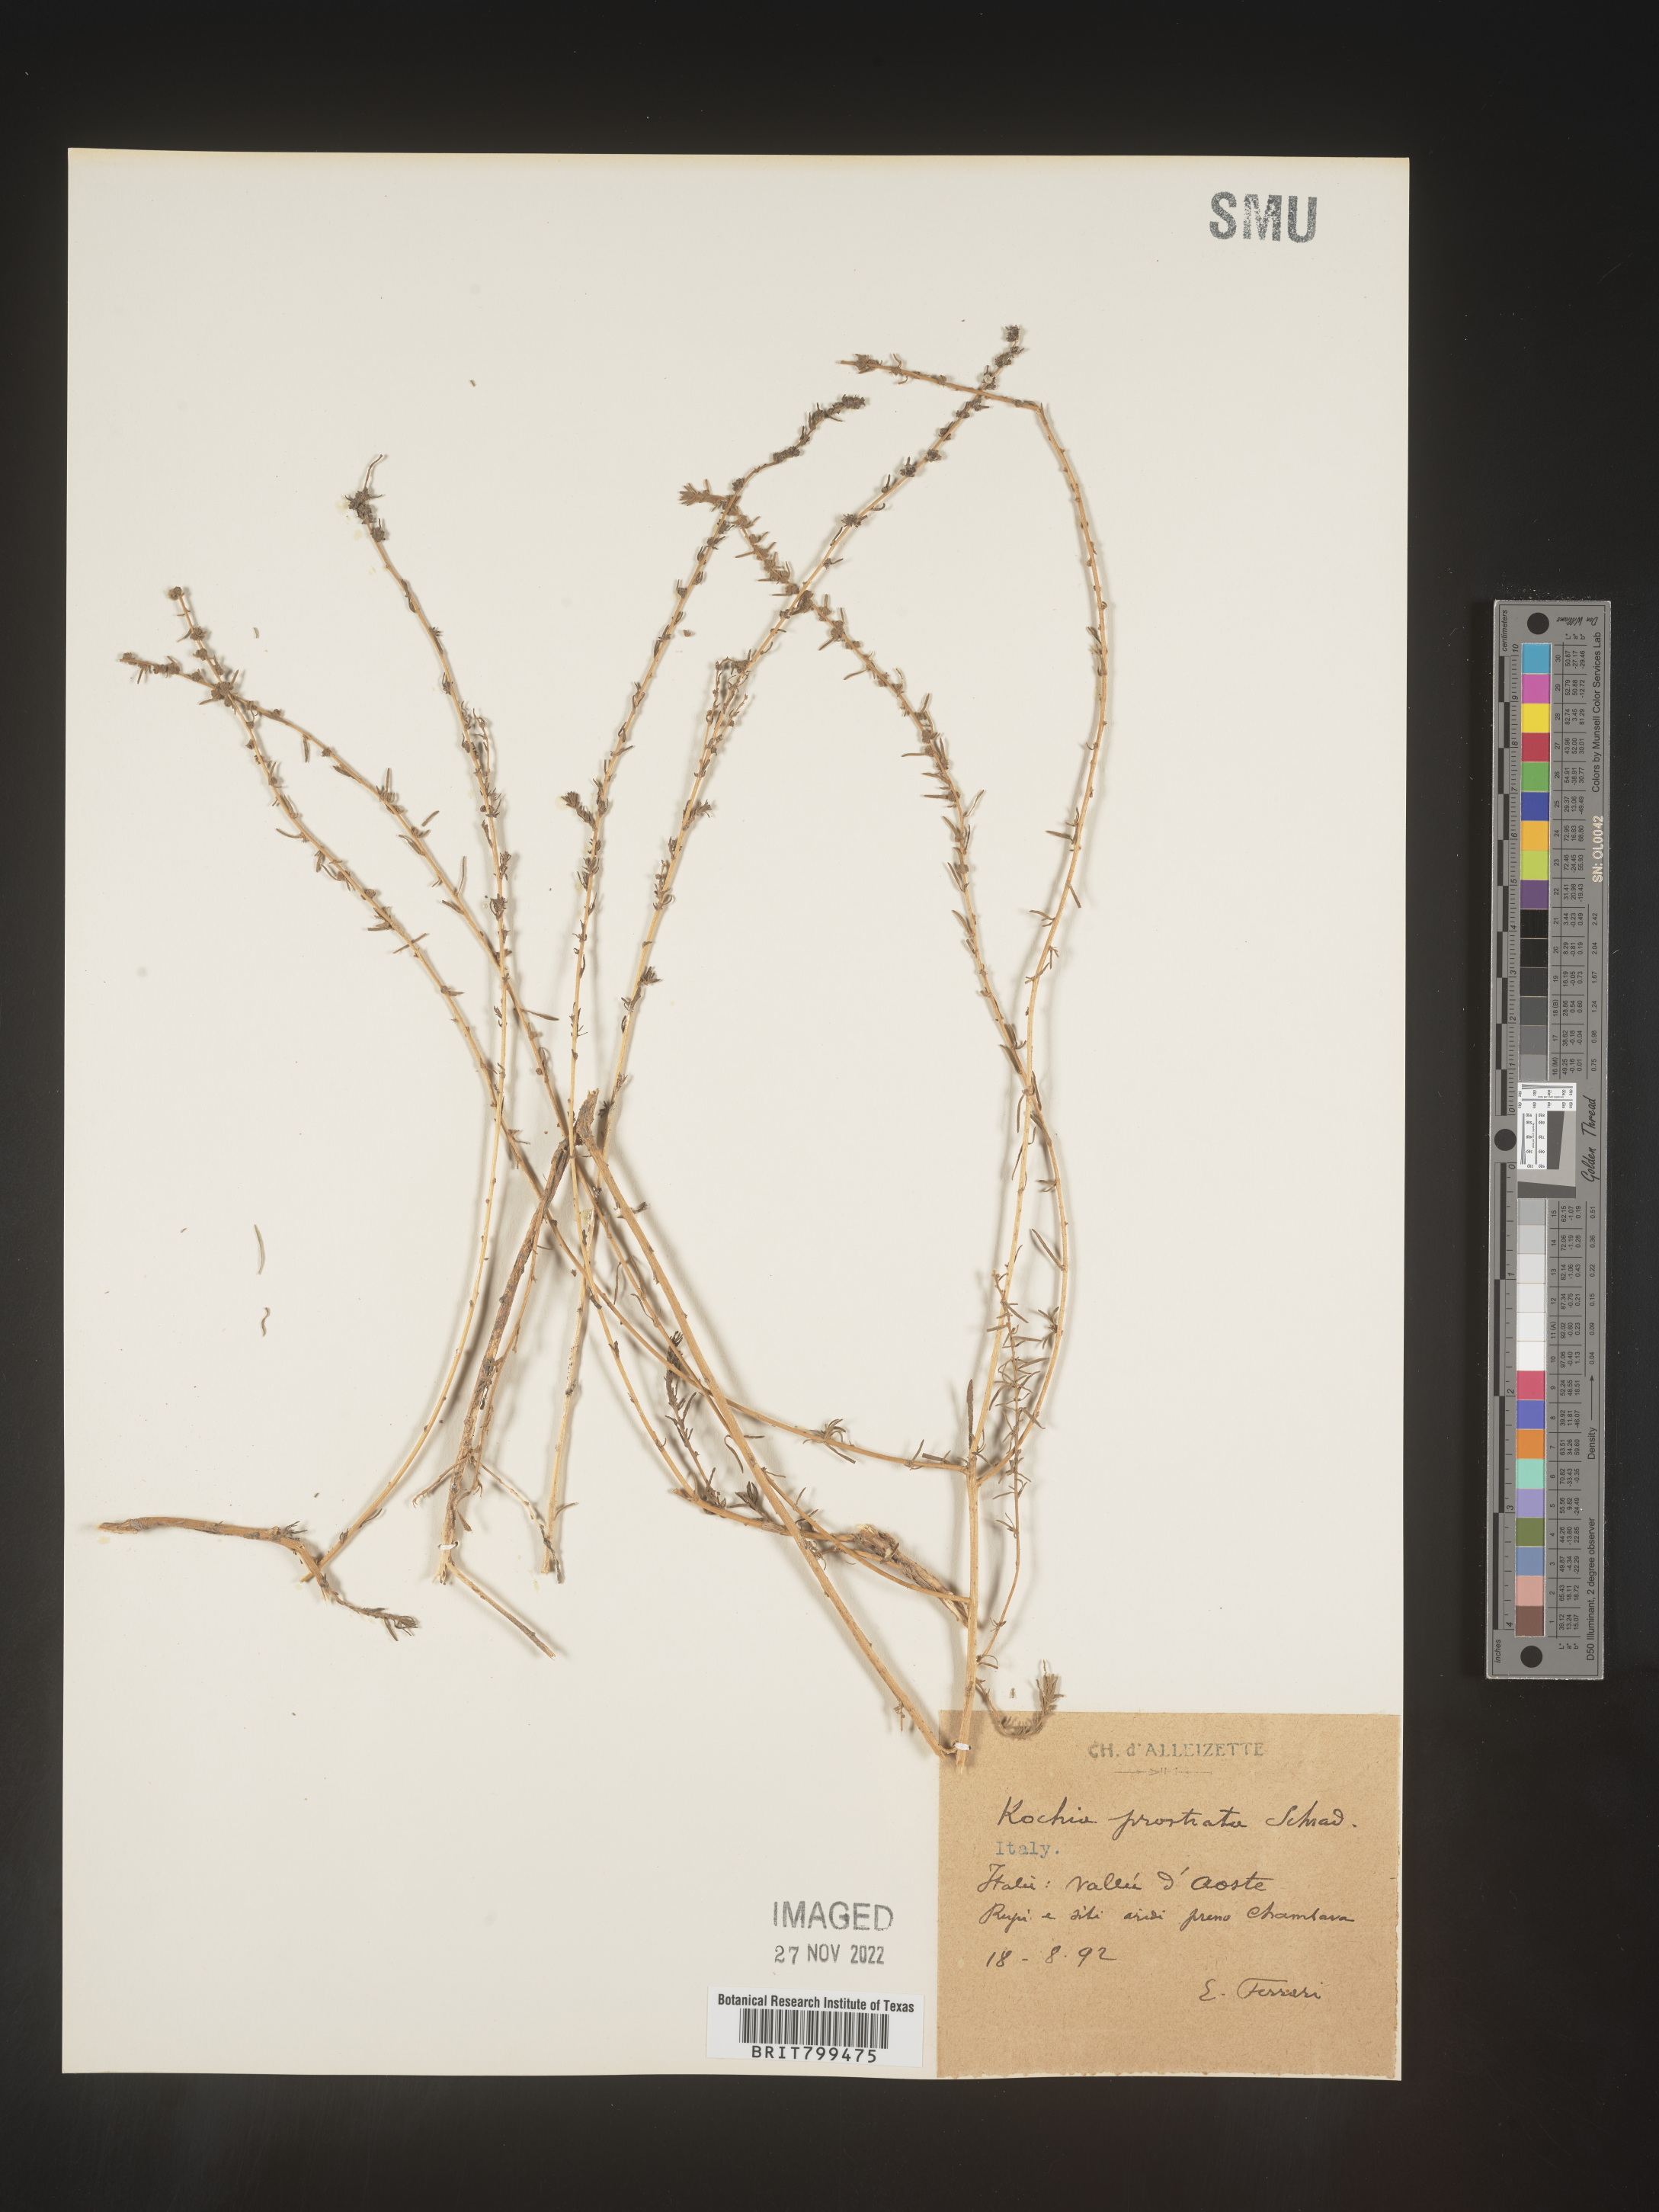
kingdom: Plantae
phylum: Tracheophyta
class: Magnoliopsida
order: Caryophyllales
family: Amaranthaceae
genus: Bassia
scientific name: Bassia
